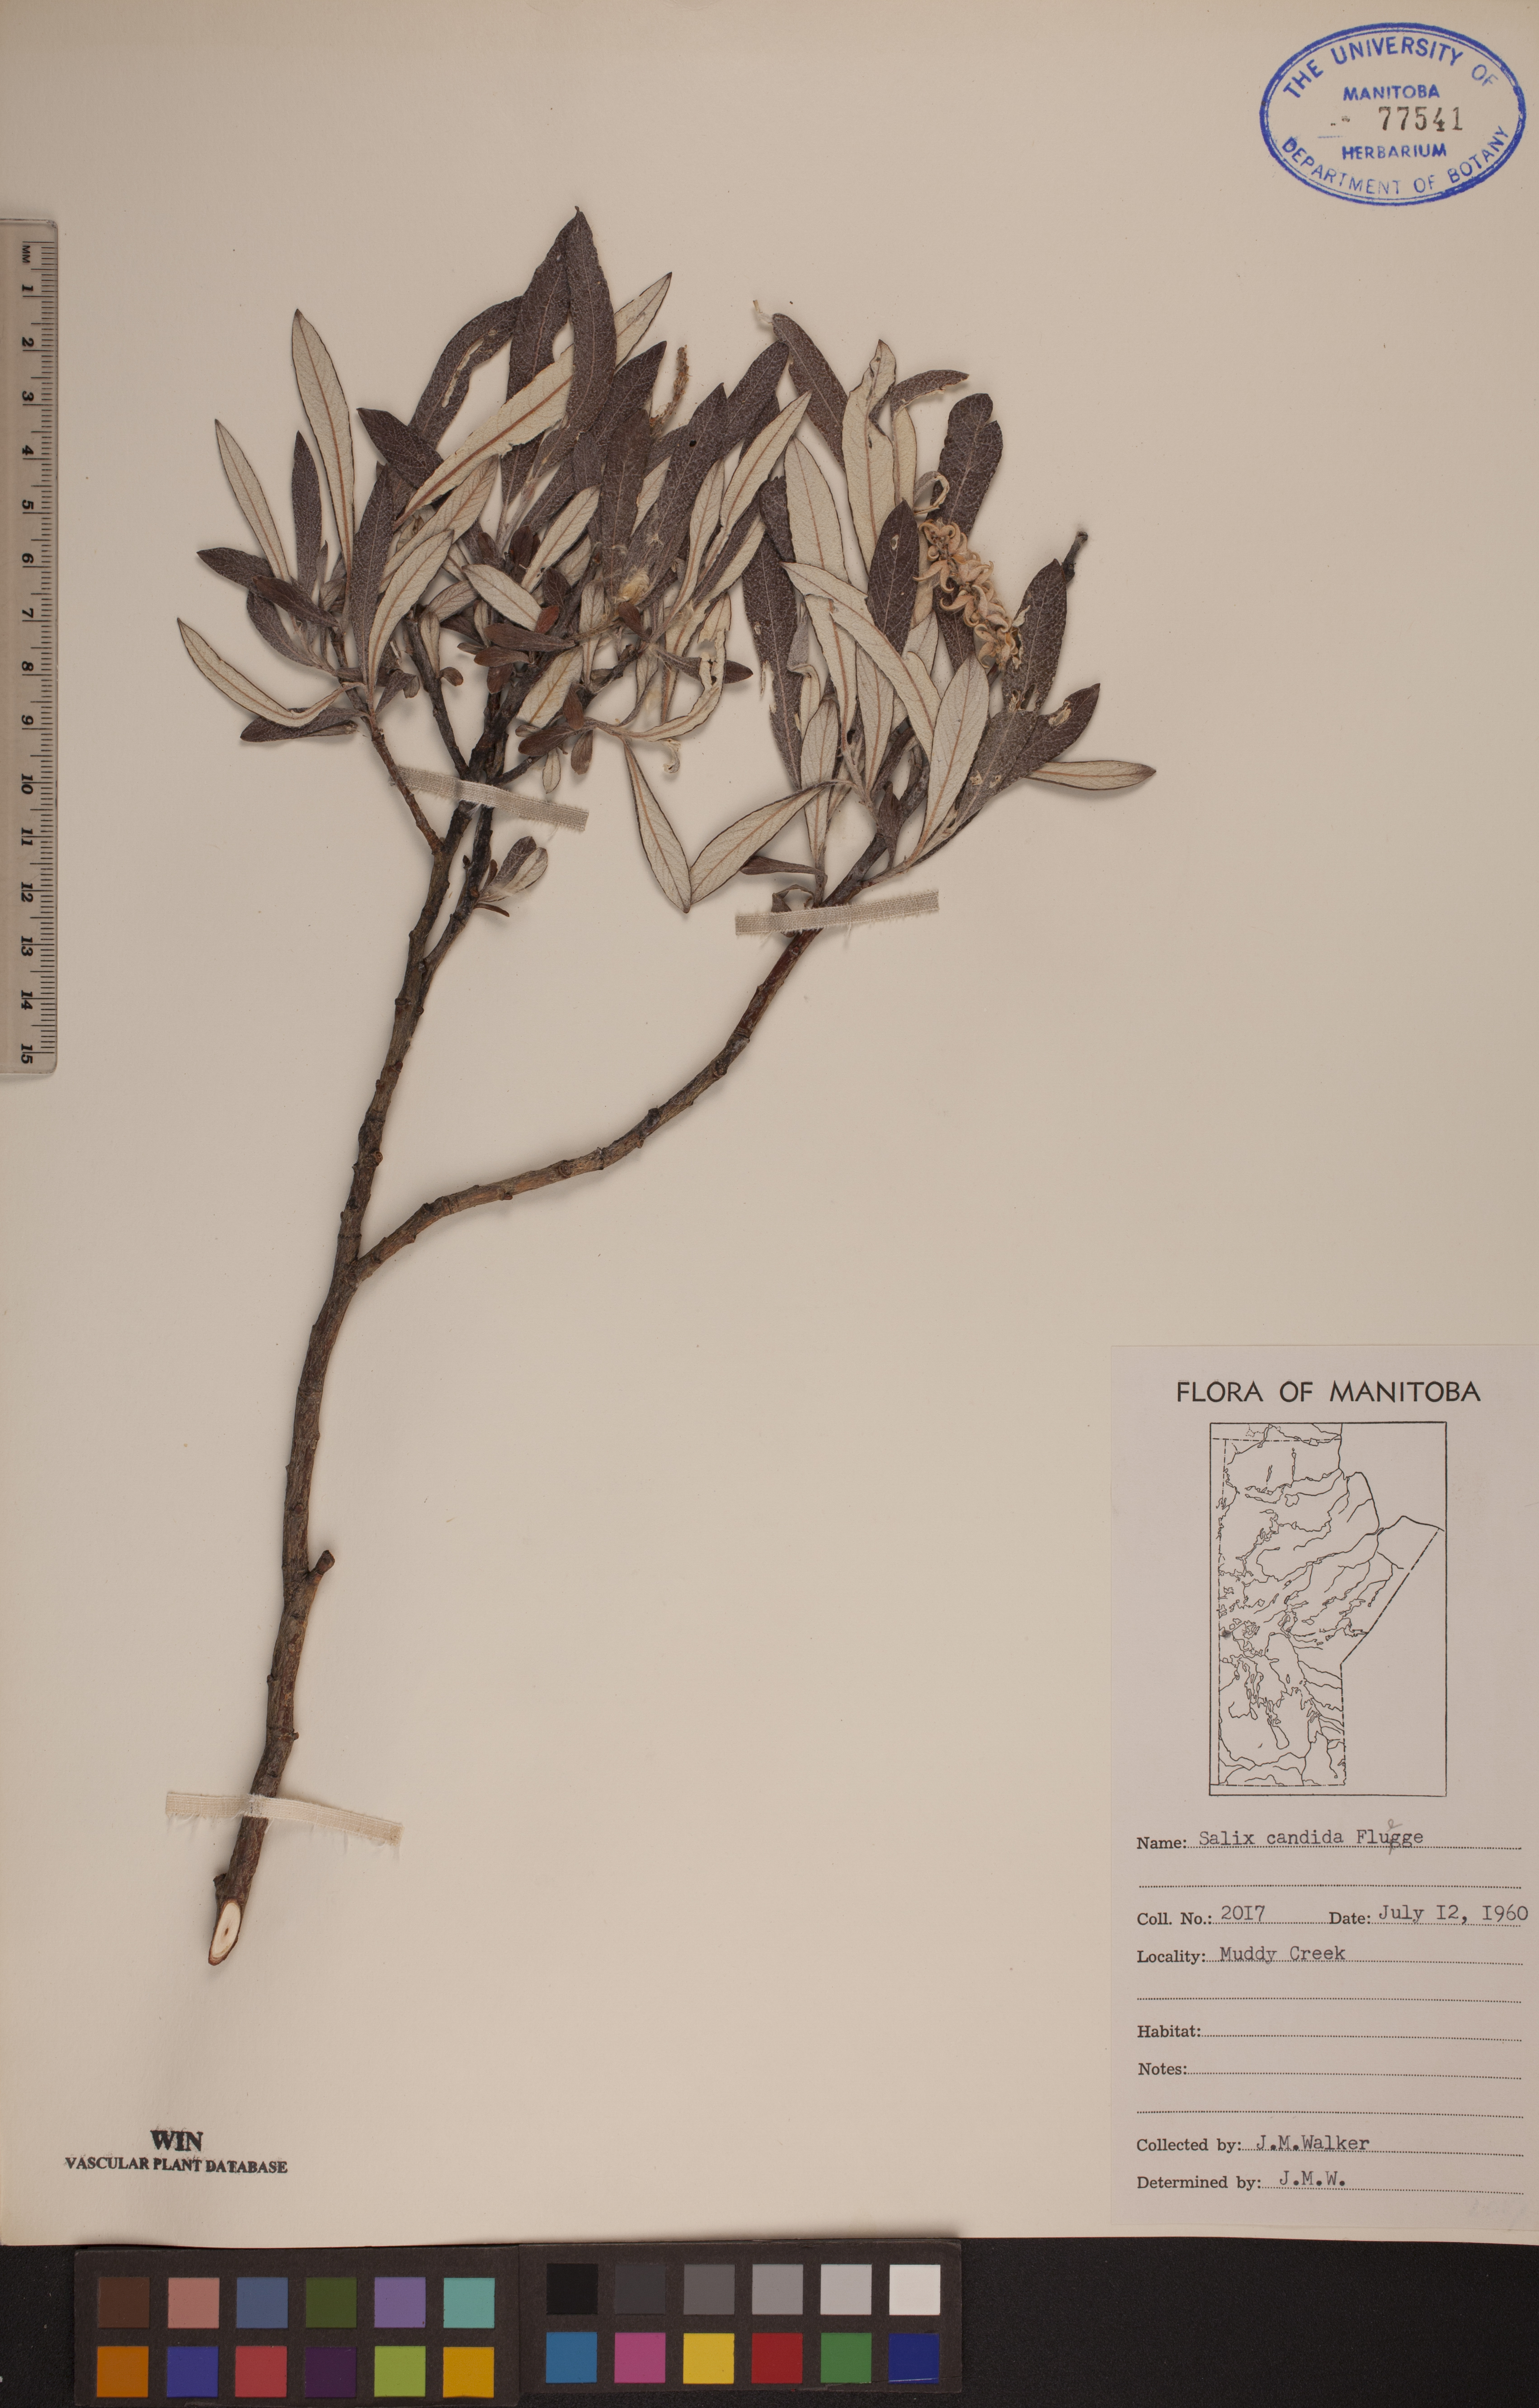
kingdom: Plantae
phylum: Tracheophyta
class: Magnoliopsida
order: Malpighiales
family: Salicaceae
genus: Salix
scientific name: Salix candida
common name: Hoary willow
